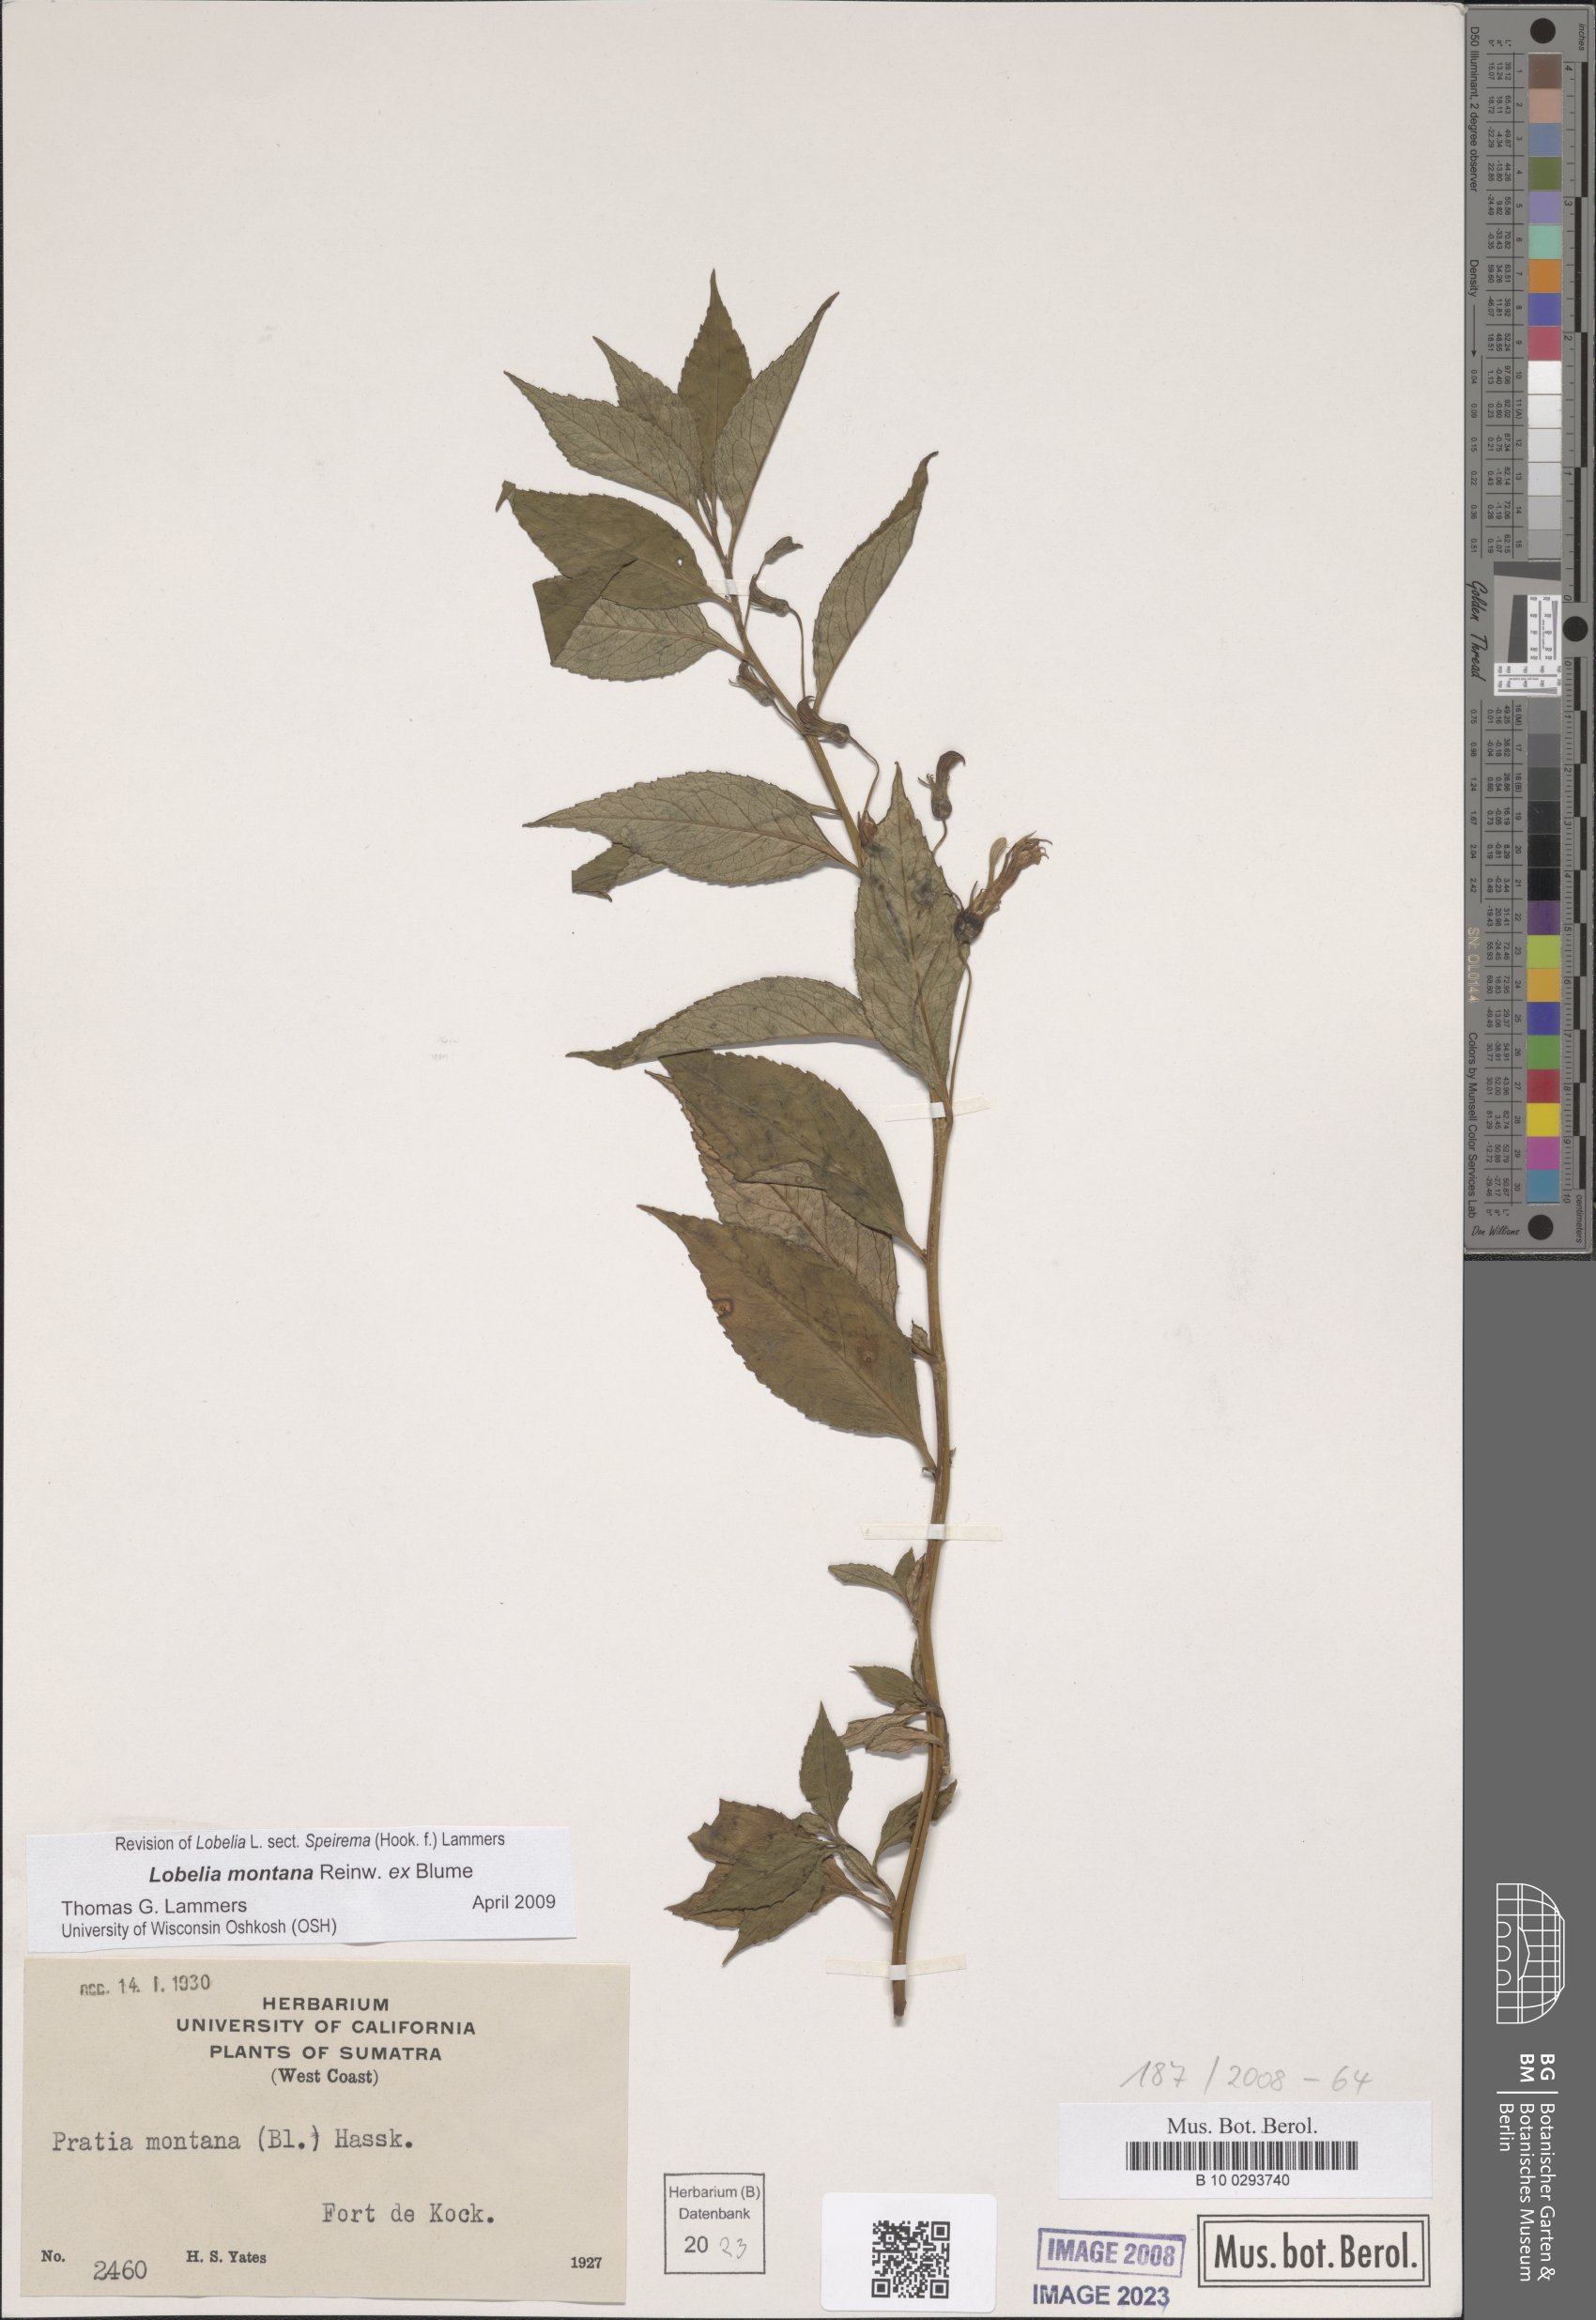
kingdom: Plantae
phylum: Tracheophyta
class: Magnoliopsida
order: Asterales
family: Campanulaceae
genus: Lobelia
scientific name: Lobelia montana
